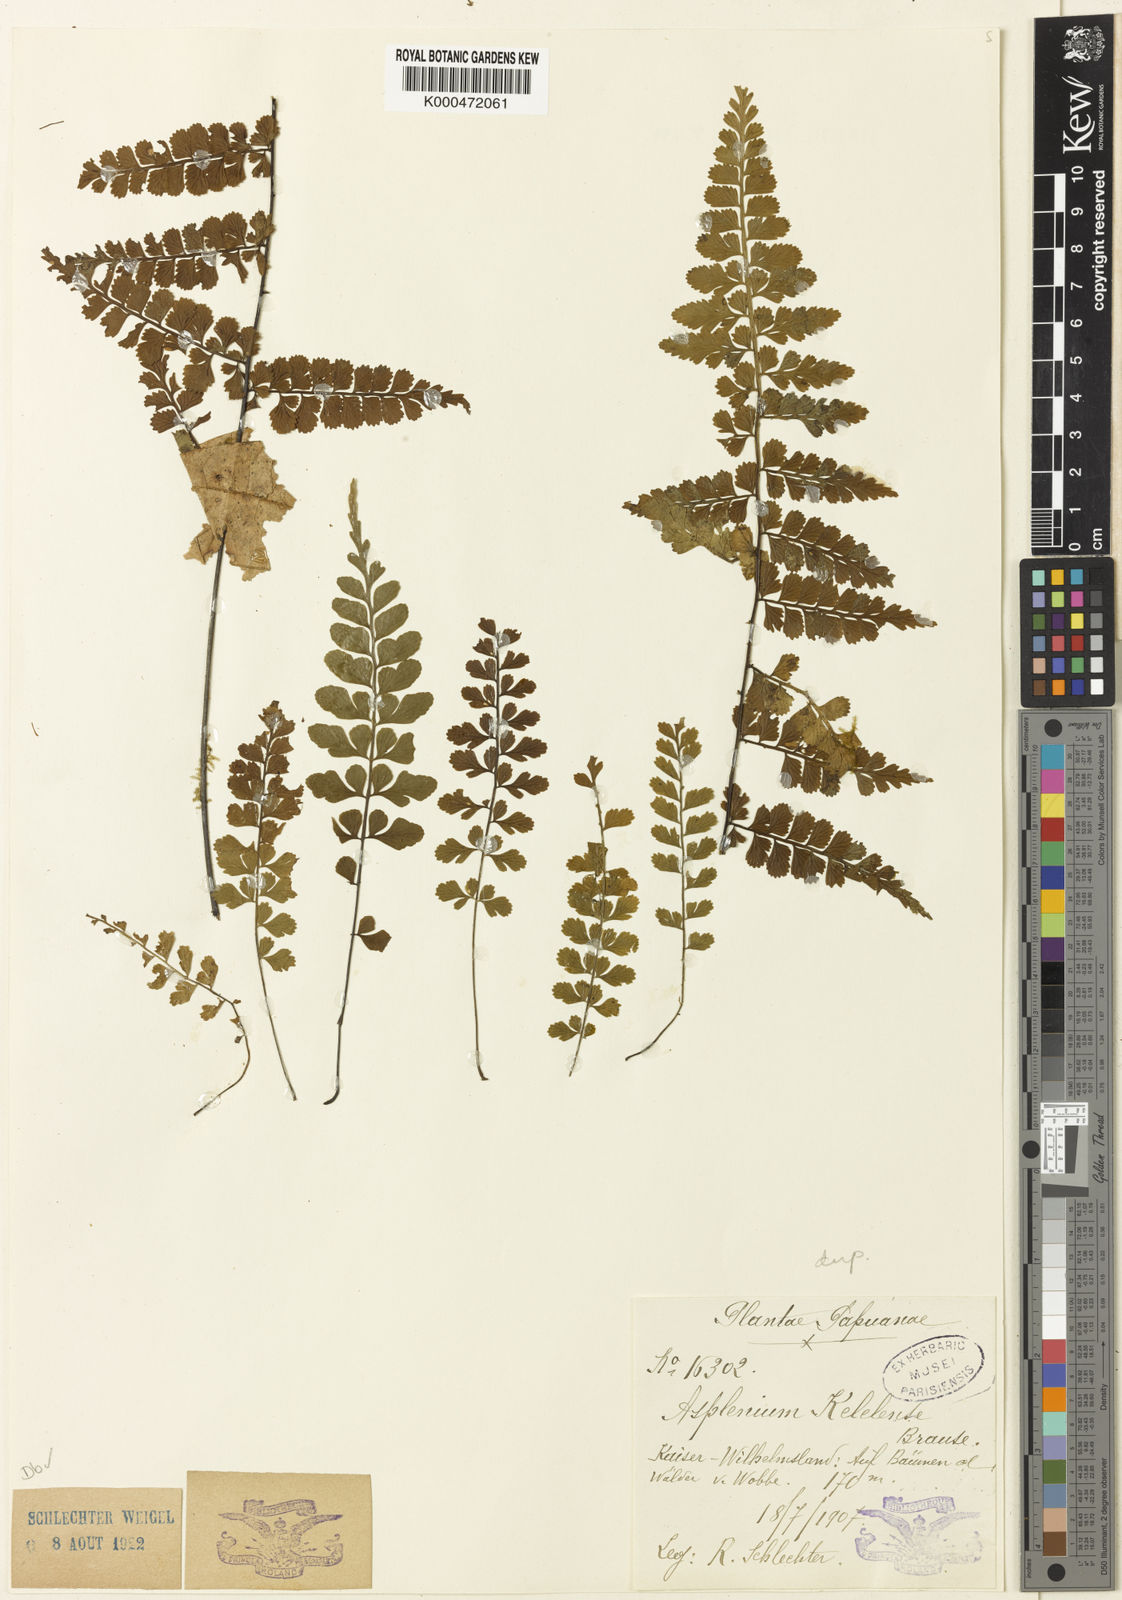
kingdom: Plantae
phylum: Tracheophyta
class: Polypodiopsida
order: Polypodiales
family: Aspleniaceae
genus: Asplenium
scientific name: Asplenium kelelense
